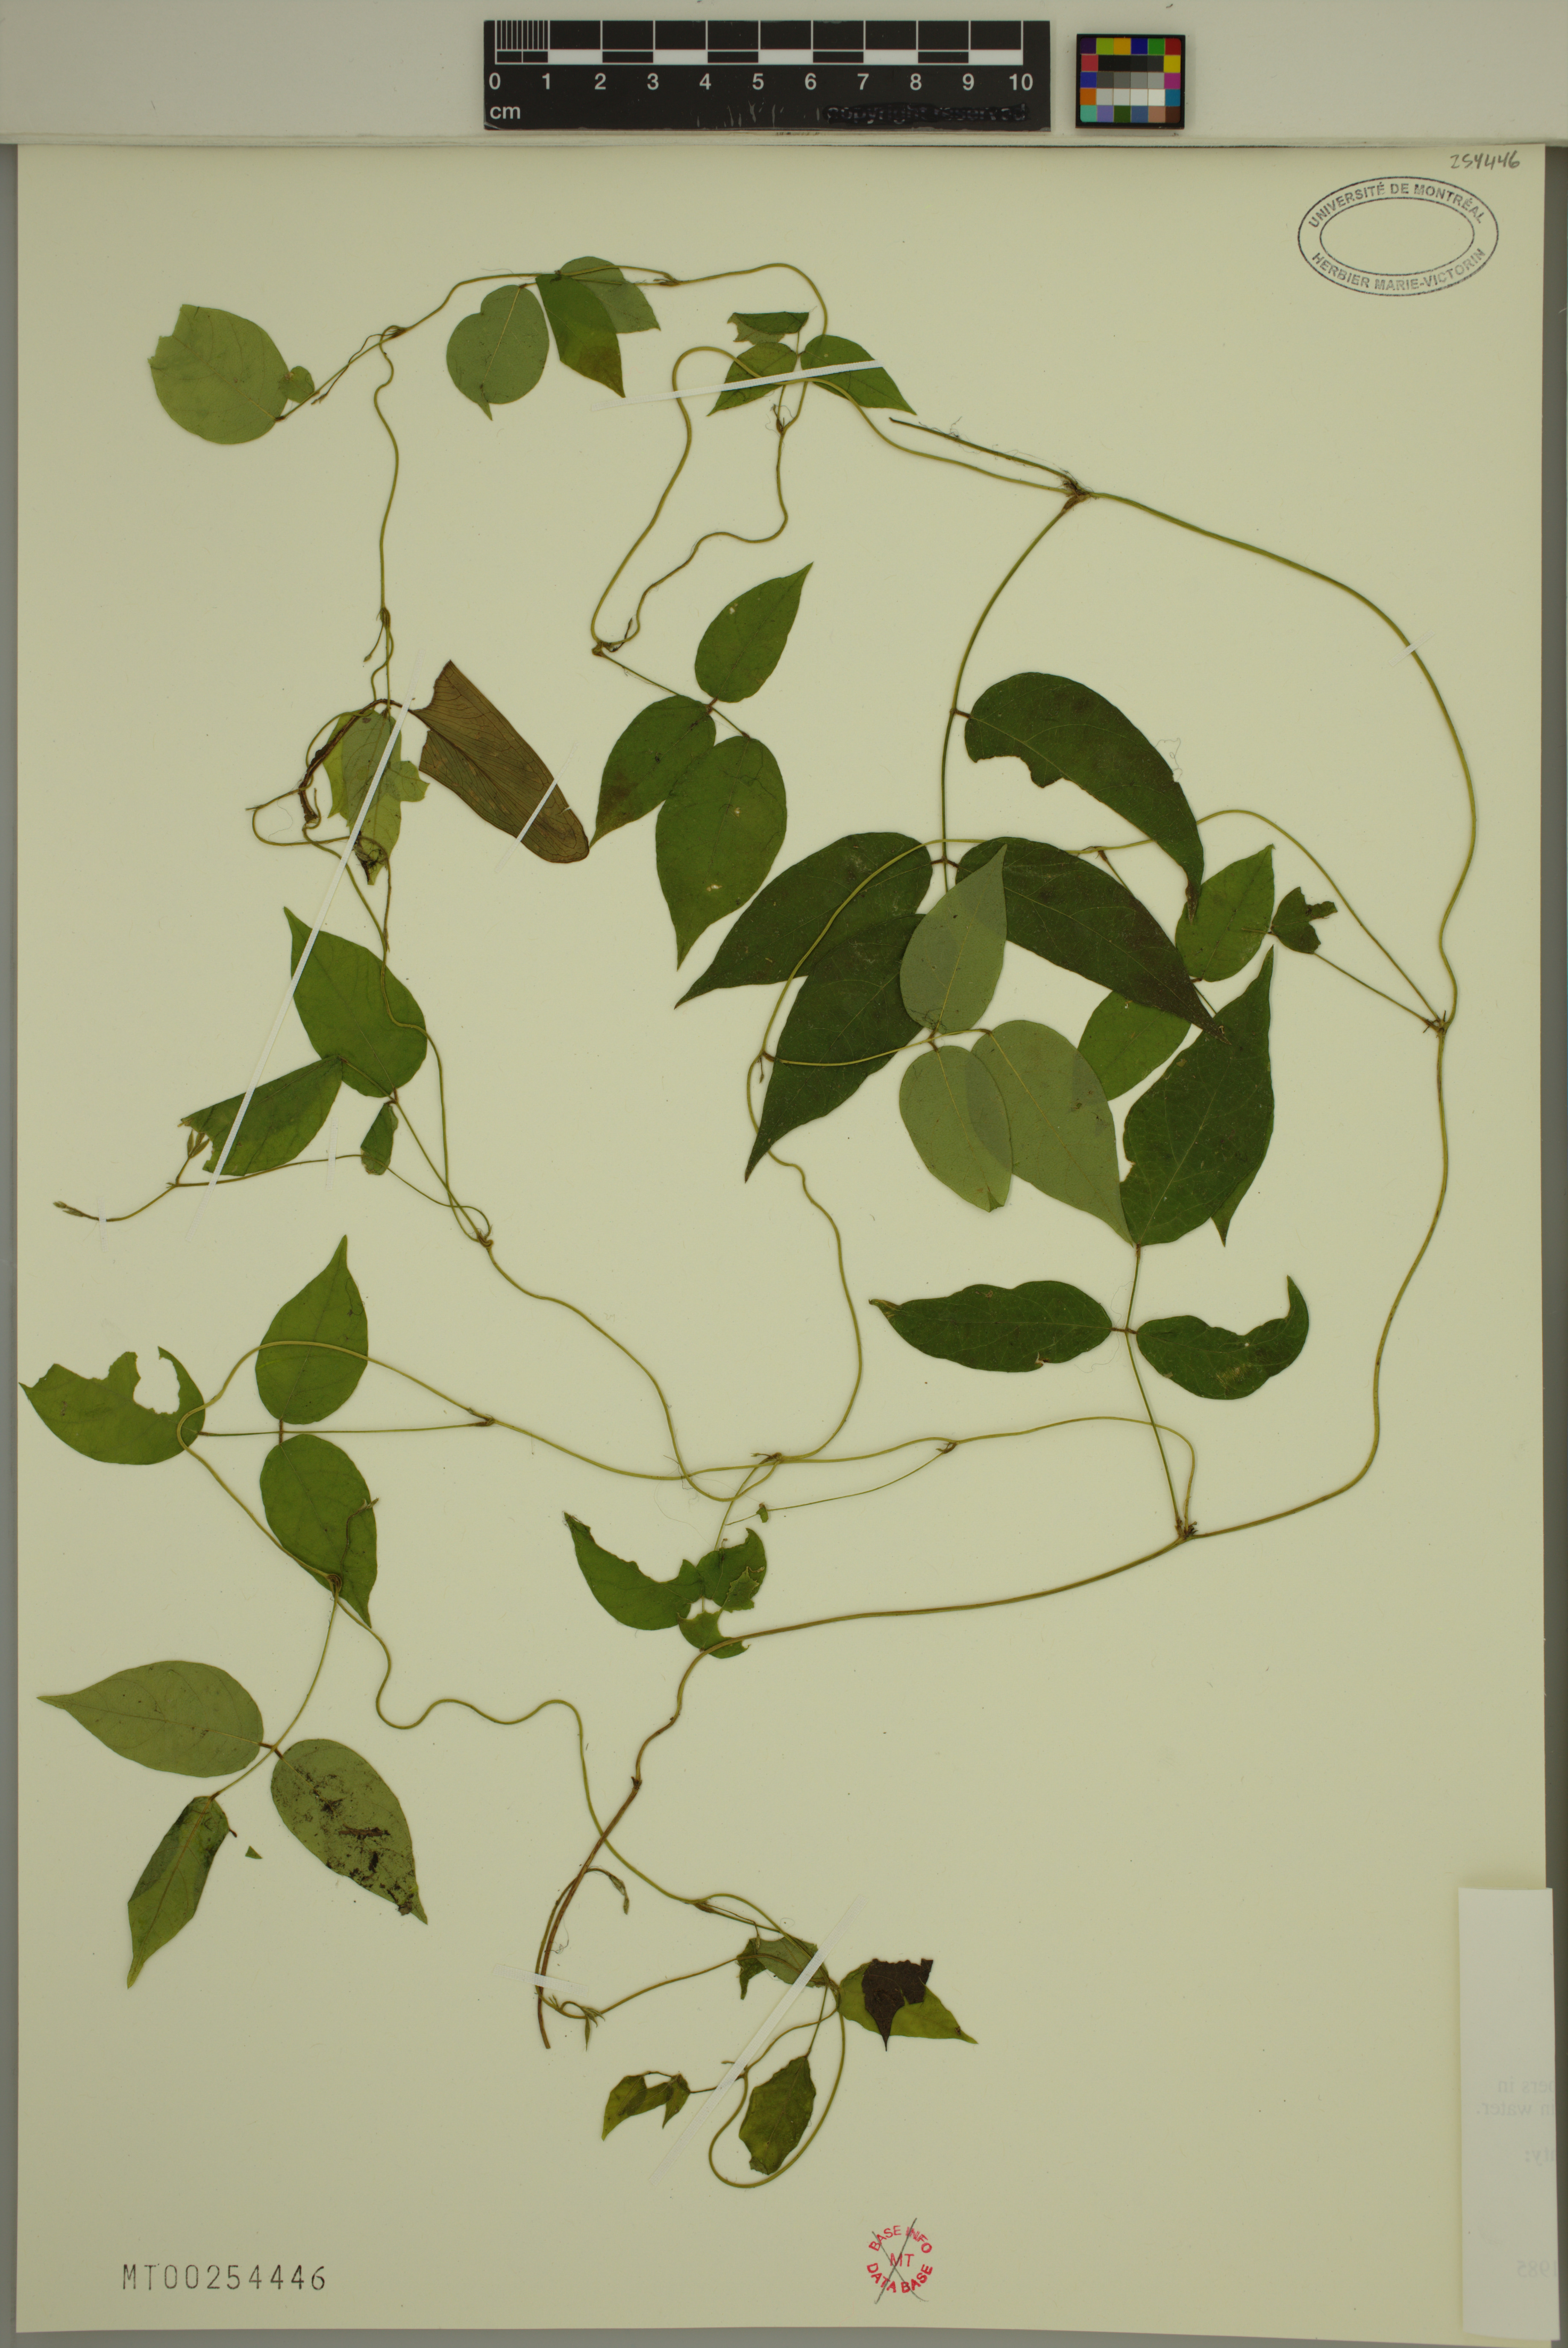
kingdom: Plantae
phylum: Tracheophyta
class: Magnoliopsida
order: Fabales
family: Fabaceae
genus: Apios
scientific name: Apios americana
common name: American potato-bean
